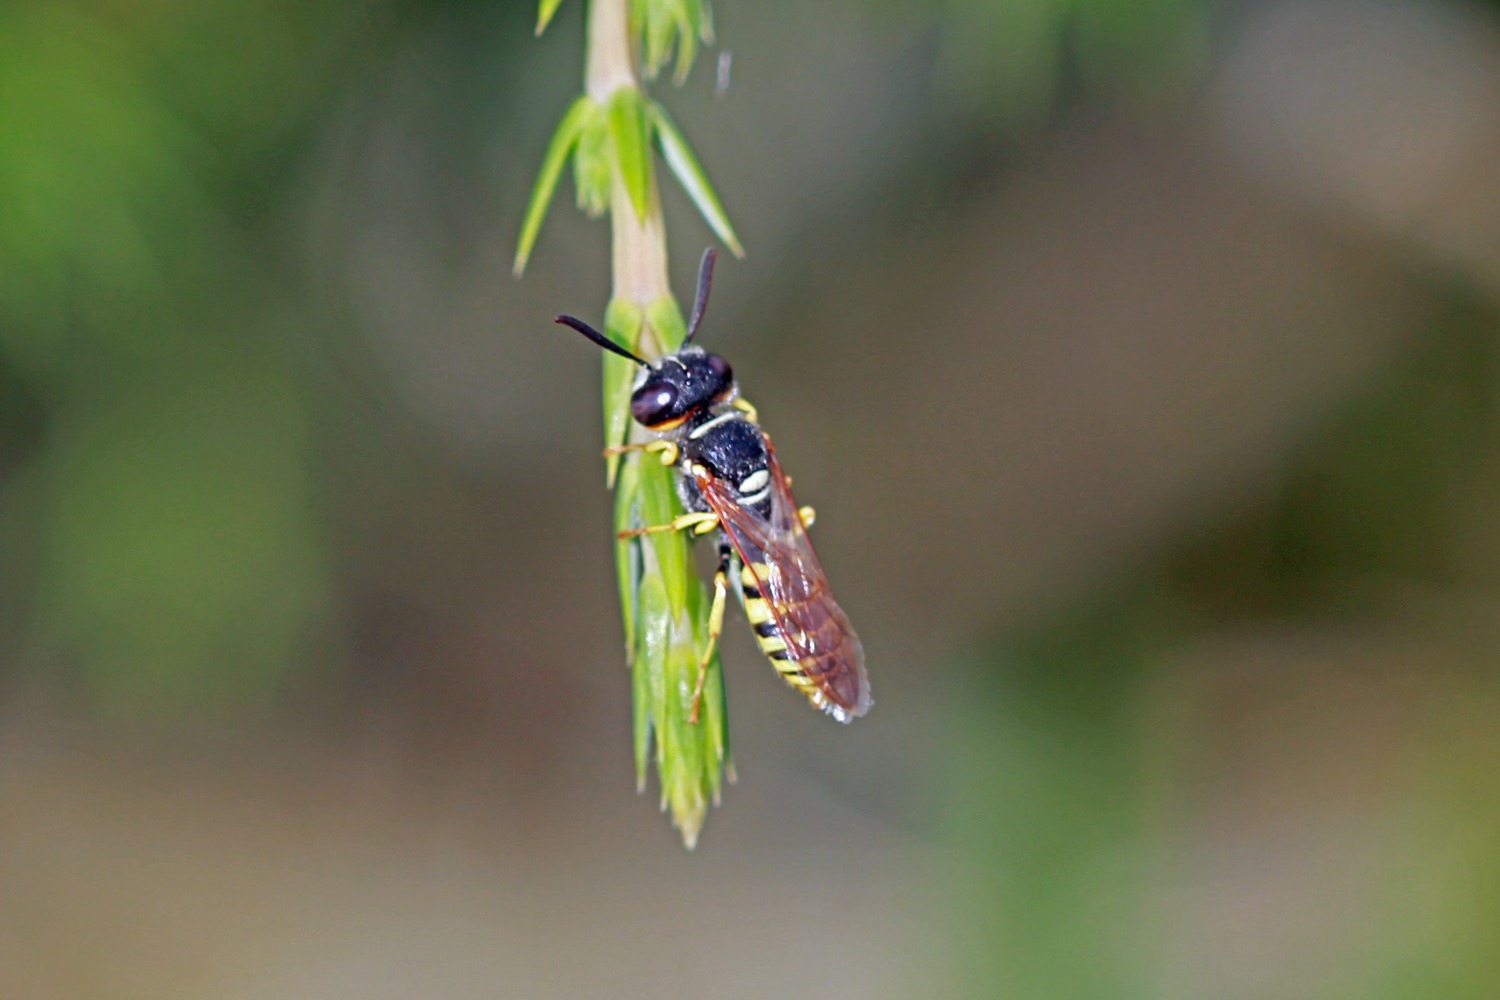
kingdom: Animalia
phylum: Arthropoda
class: Insecta
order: Hymenoptera
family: Crabronidae
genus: Philanthus
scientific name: Philanthus triangulum
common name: Biulv
